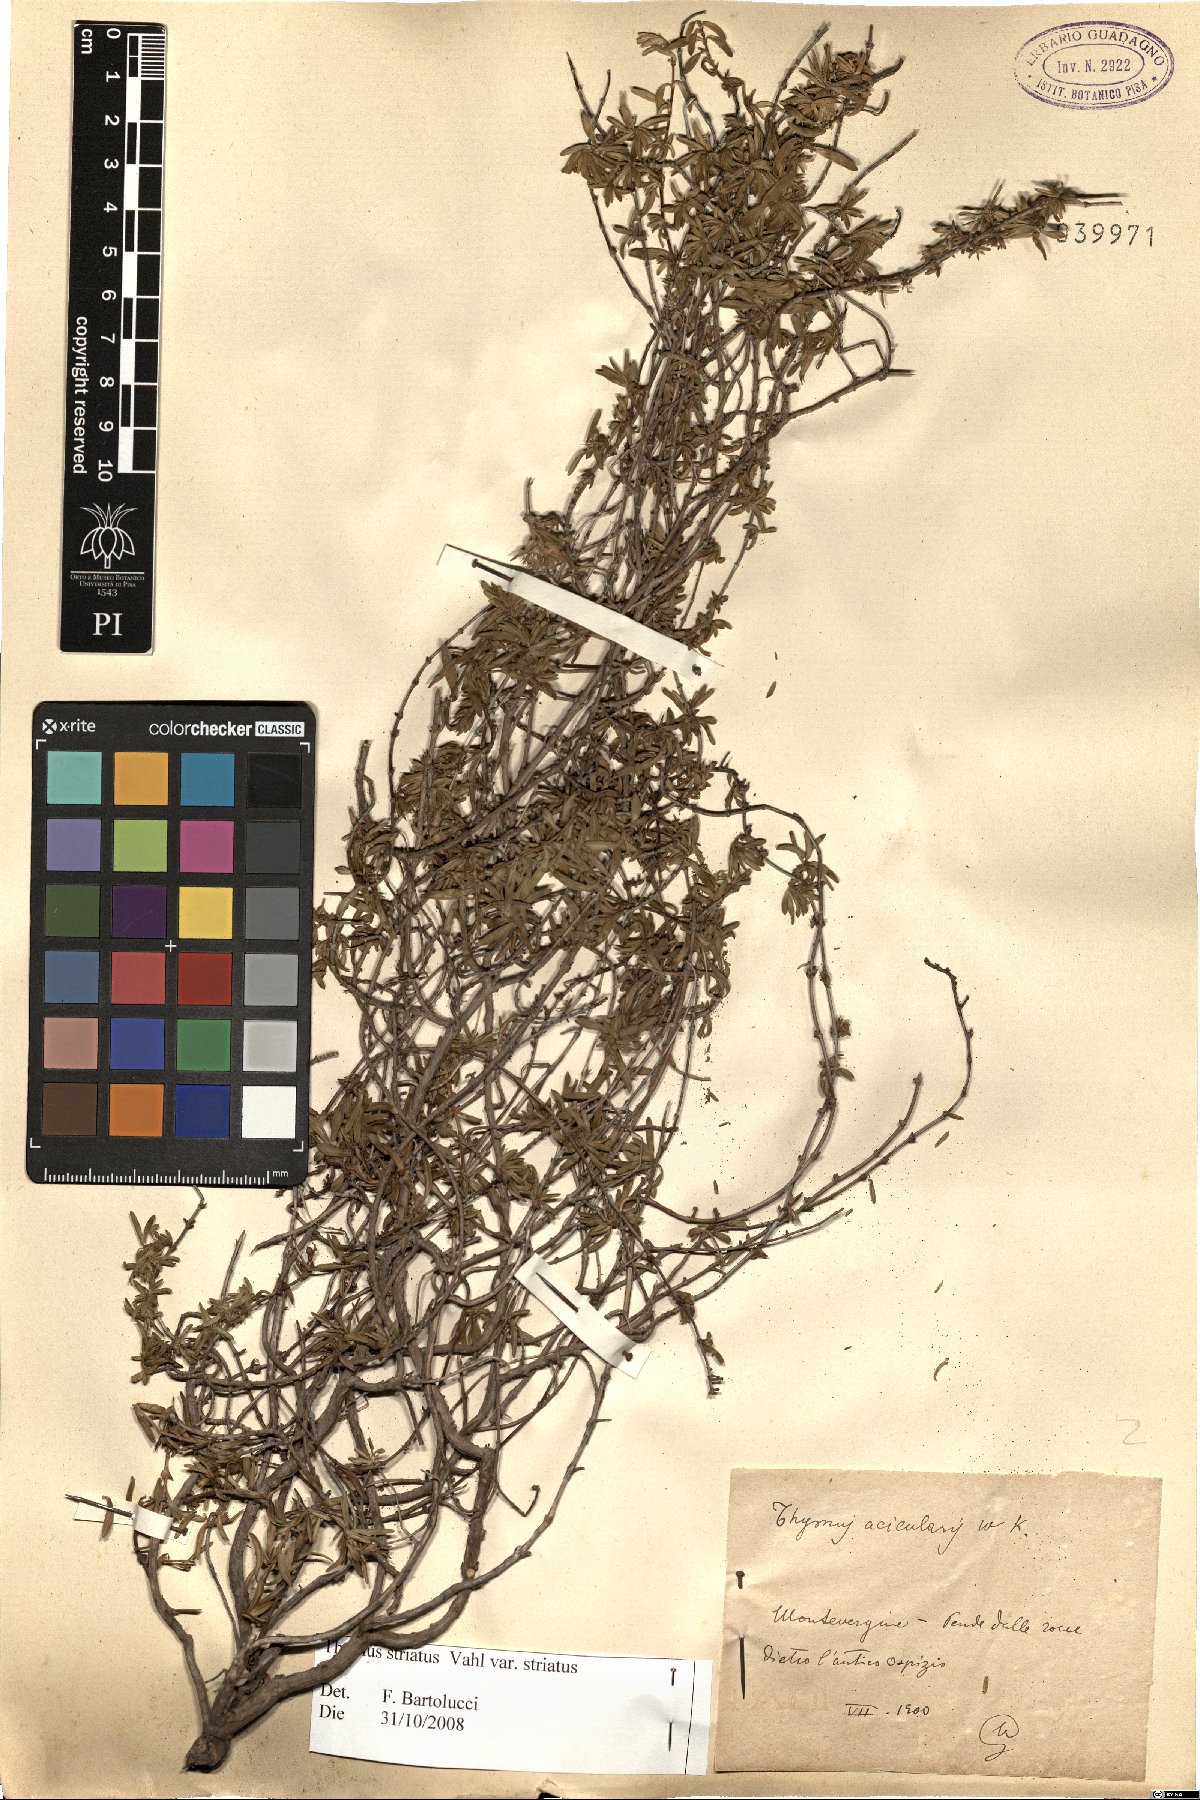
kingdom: Plantae
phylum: Tracheophyta
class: Magnoliopsida
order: Lamiales
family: Lamiaceae
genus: Thymus
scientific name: Thymus striatus
